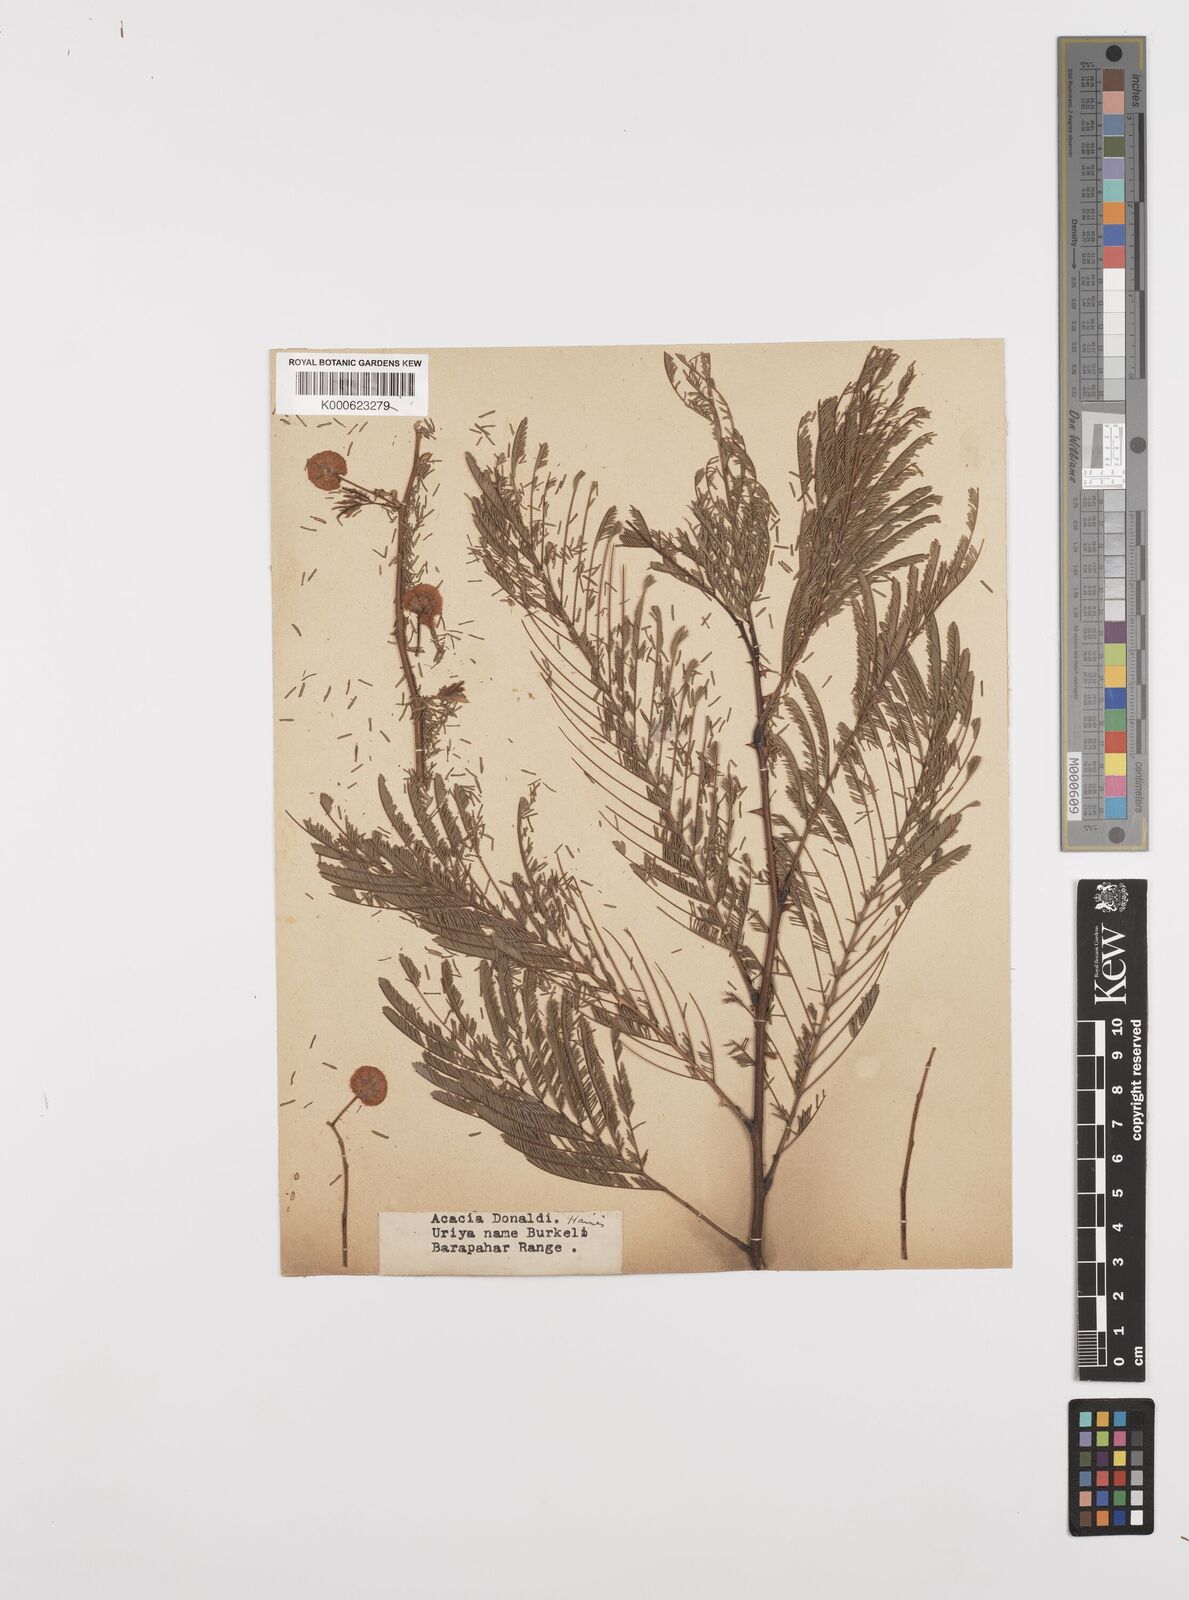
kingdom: Plantae
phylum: Tracheophyta
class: Magnoliopsida
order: Fabales
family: Fabaceae
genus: Senegalia
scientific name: Senegalia donaldi
